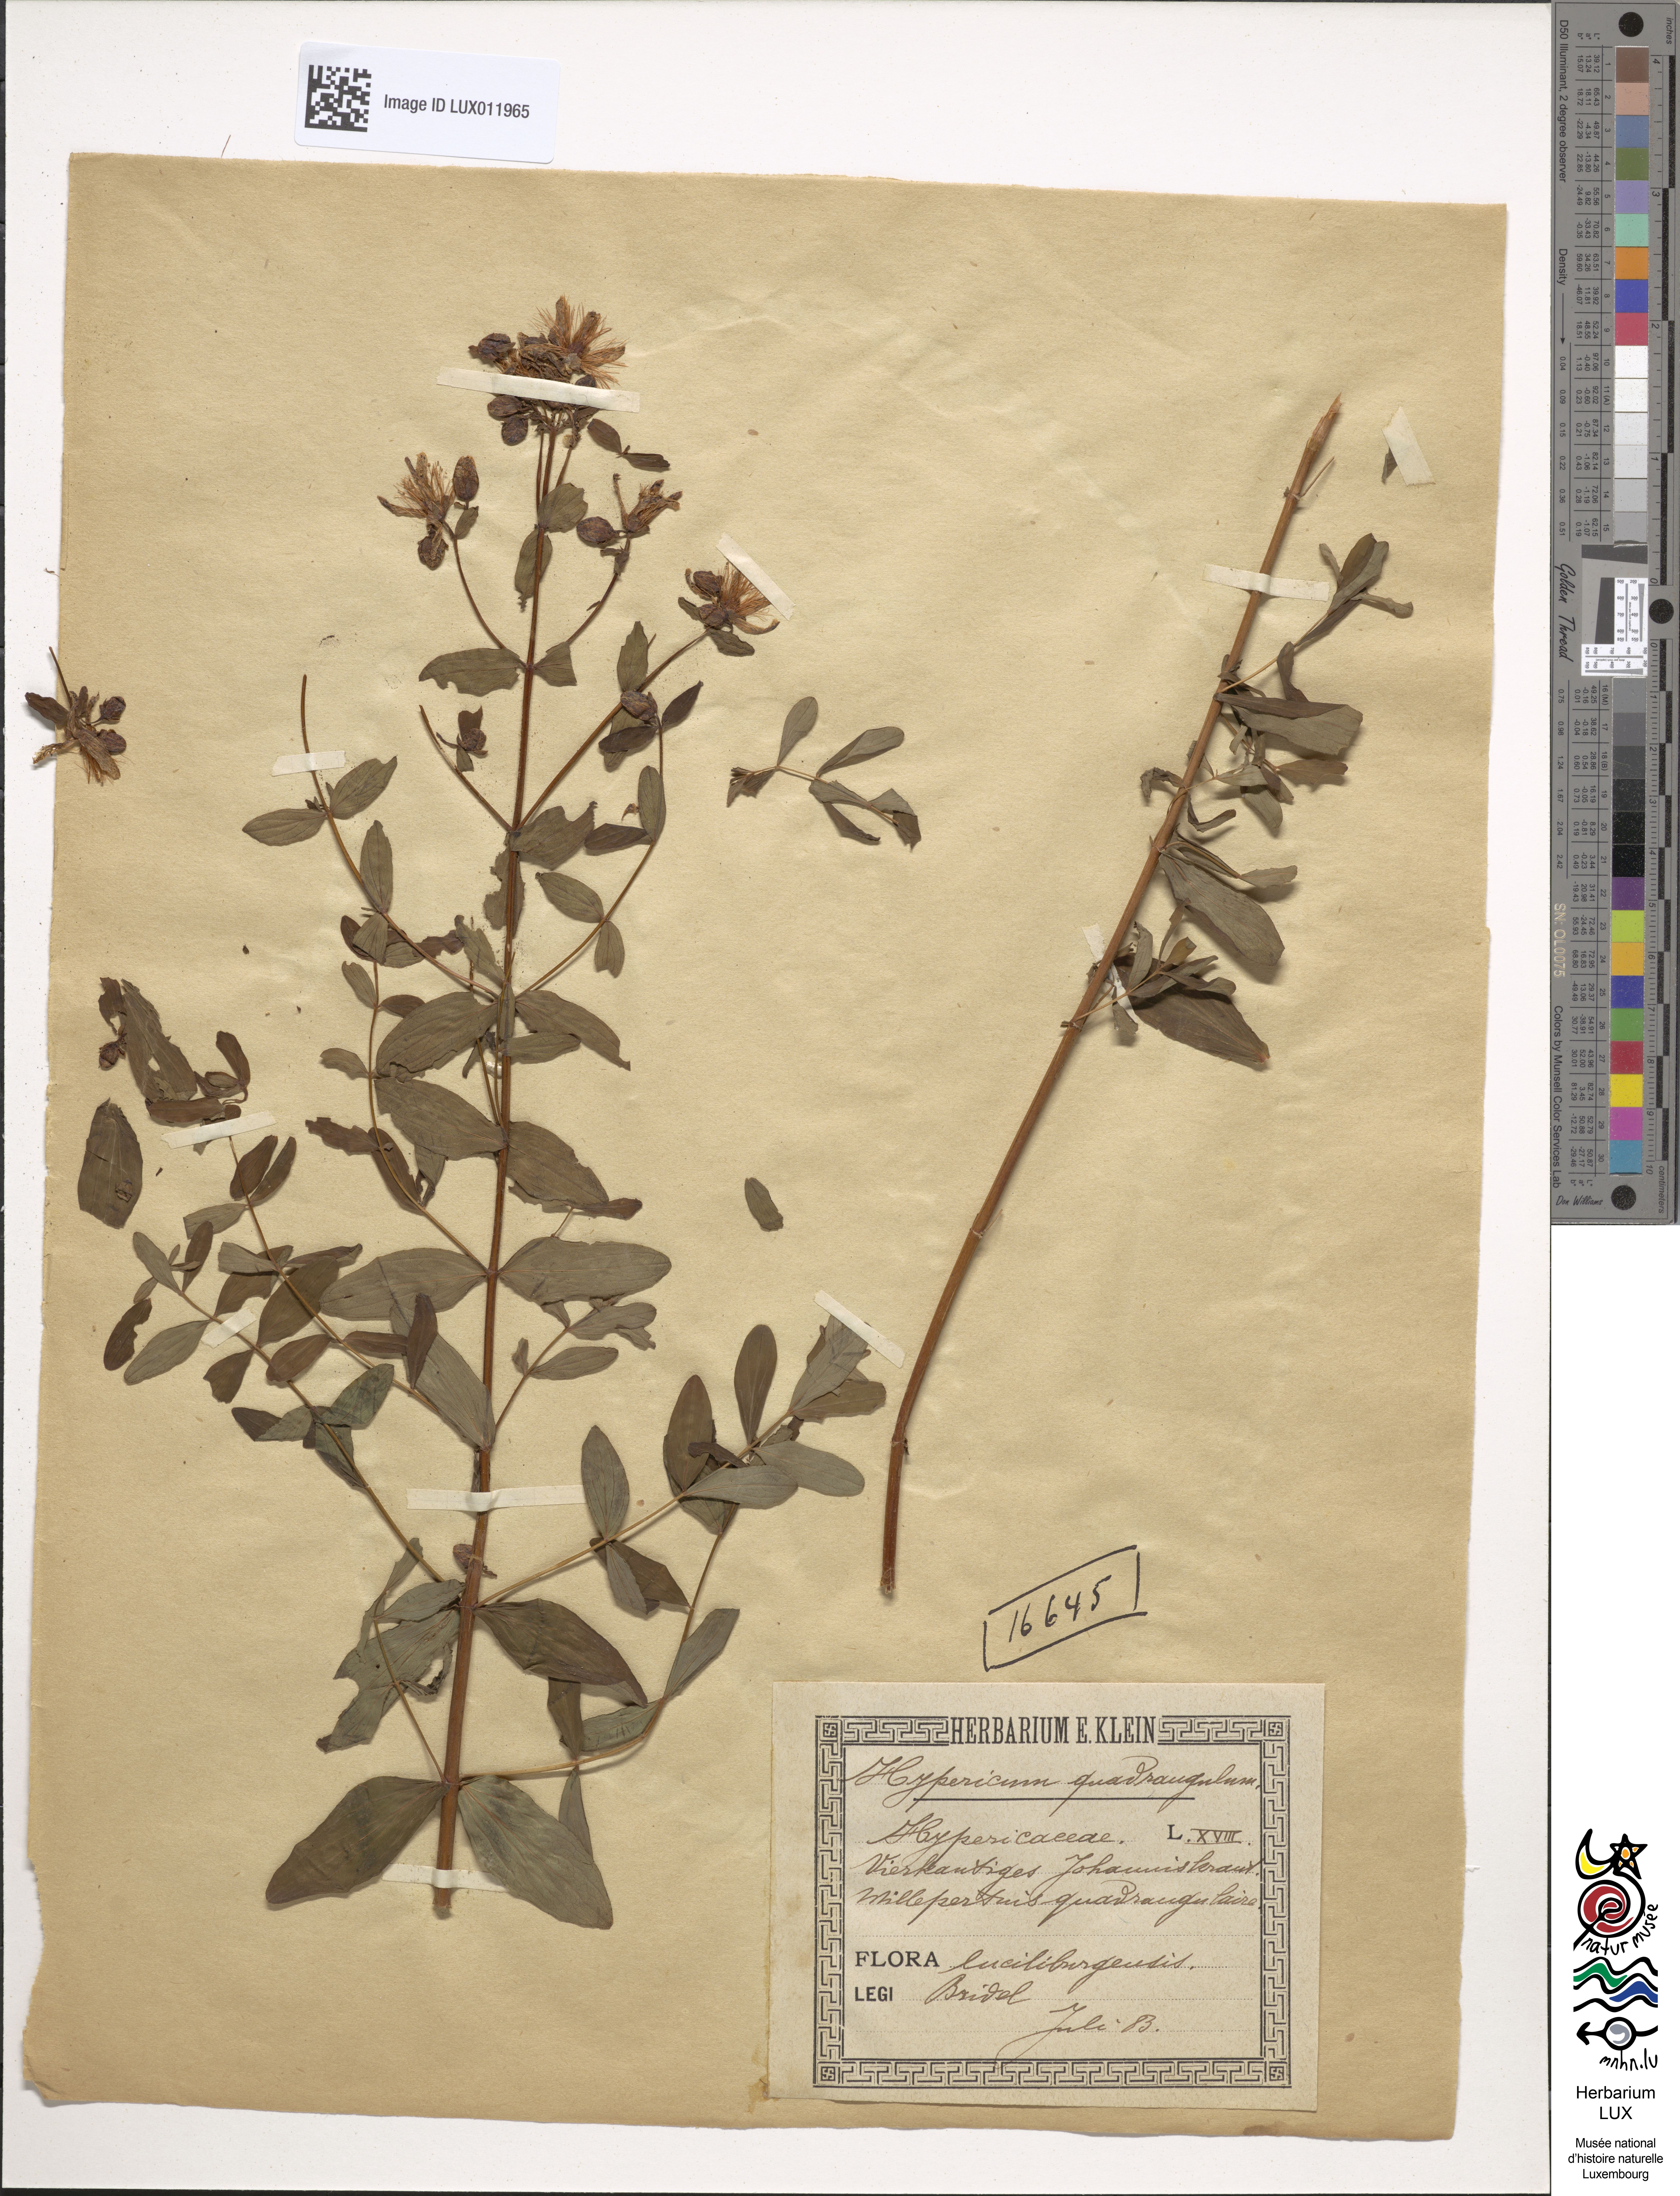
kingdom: Plantae
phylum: Tracheophyta
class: Magnoliopsida
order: Malpighiales
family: Hypericaceae
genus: Hypericum
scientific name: Hypericum tetrapterum
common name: Square-stalked st. john's-wort
